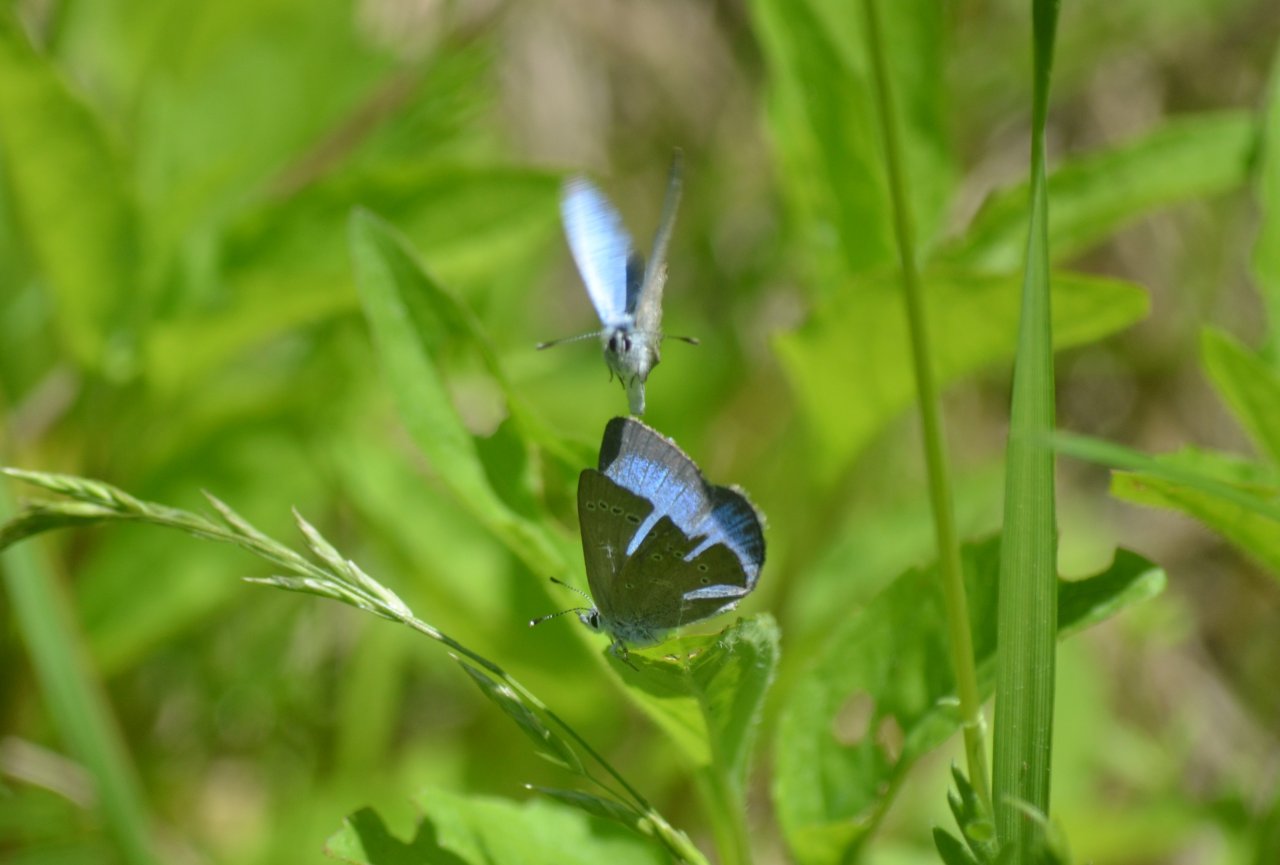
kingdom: Animalia
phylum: Arthropoda
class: Insecta
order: Lepidoptera
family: Lycaenidae
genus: Glaucopsyche
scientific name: Glaucopsyche lygdamus
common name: Silvery Blue
